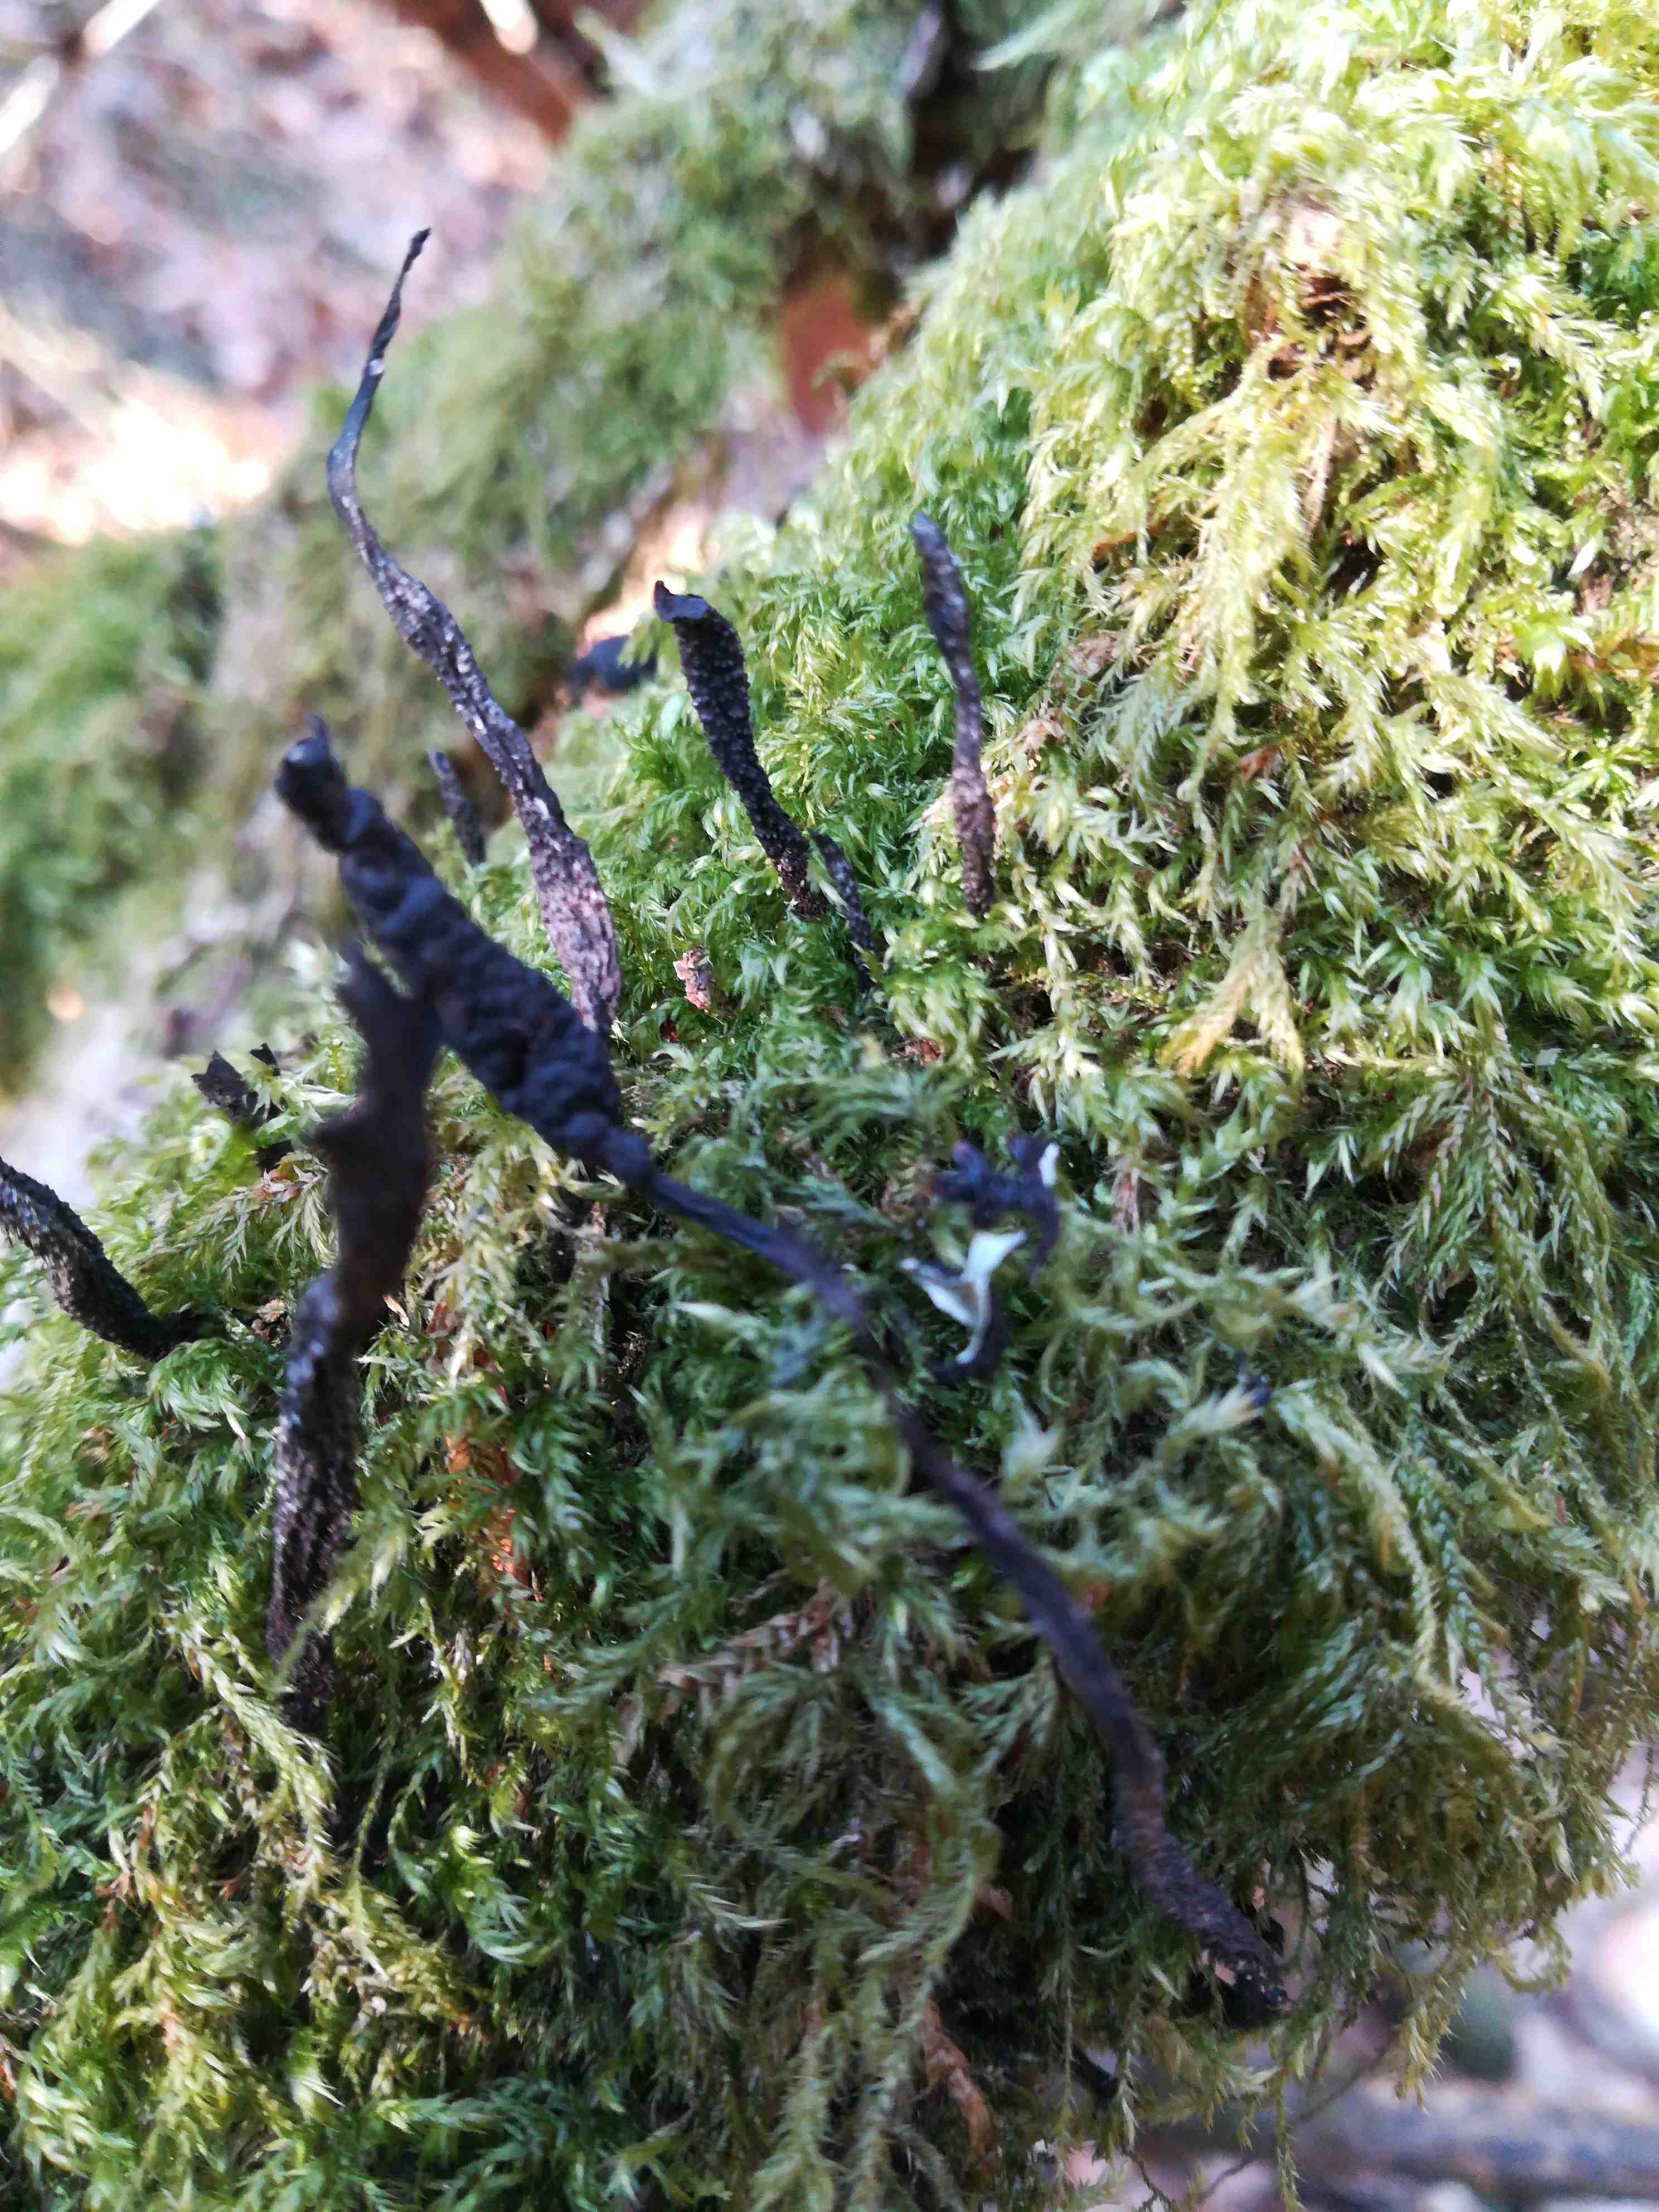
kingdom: Fungi
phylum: Ascomycota
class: Sordariomycetes
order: Xylariales
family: Xylariaceae
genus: Xylaria
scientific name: Xylaria hypoxylon
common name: grenet stødsvamp
